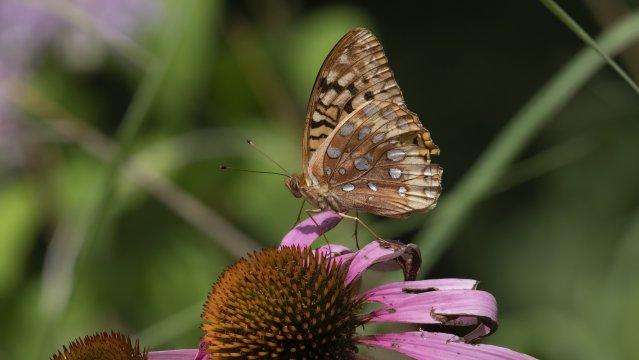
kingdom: Animalia
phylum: Arthropoda
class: Insecta
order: Lepidoptera
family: Nymphalidae
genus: Speyeria
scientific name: Speyeria cybele
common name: Great Spangled Fritillary
